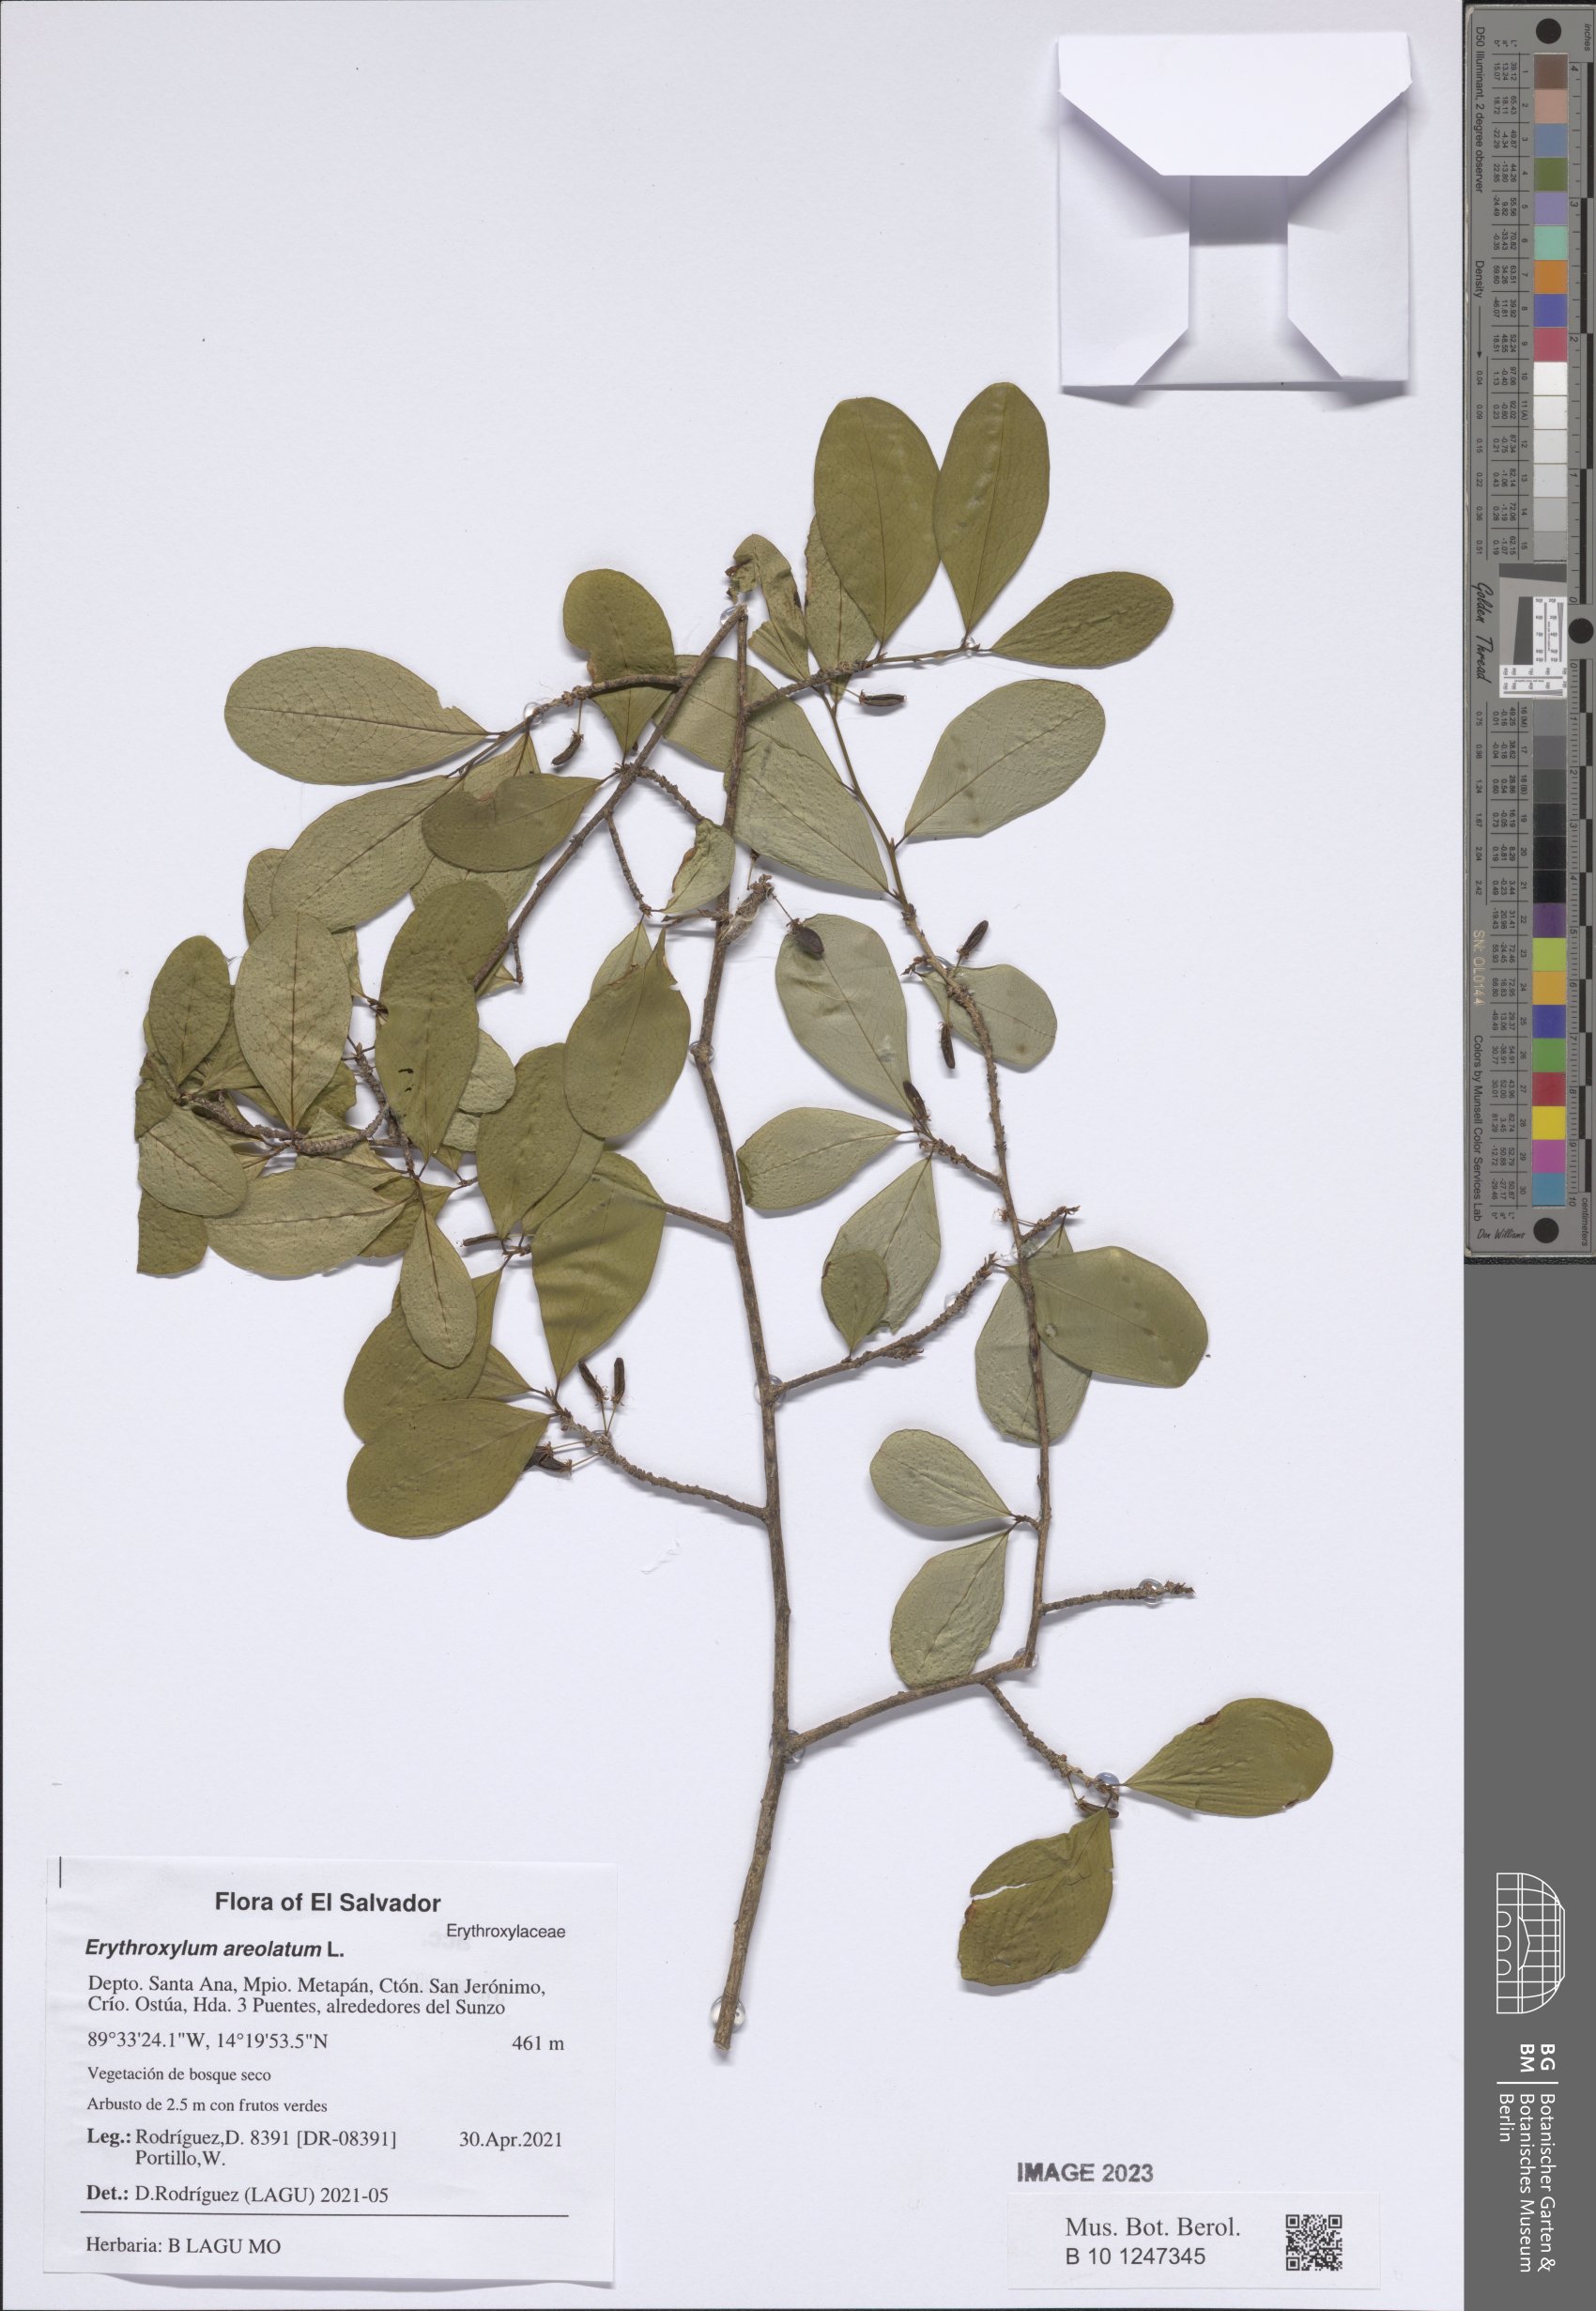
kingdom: Plantae
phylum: Tracheophyta
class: Magnoliopsida
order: Malpighiales
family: Erythroxylaceae
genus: Erythroxylum
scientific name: Erythroxylum areolatum
